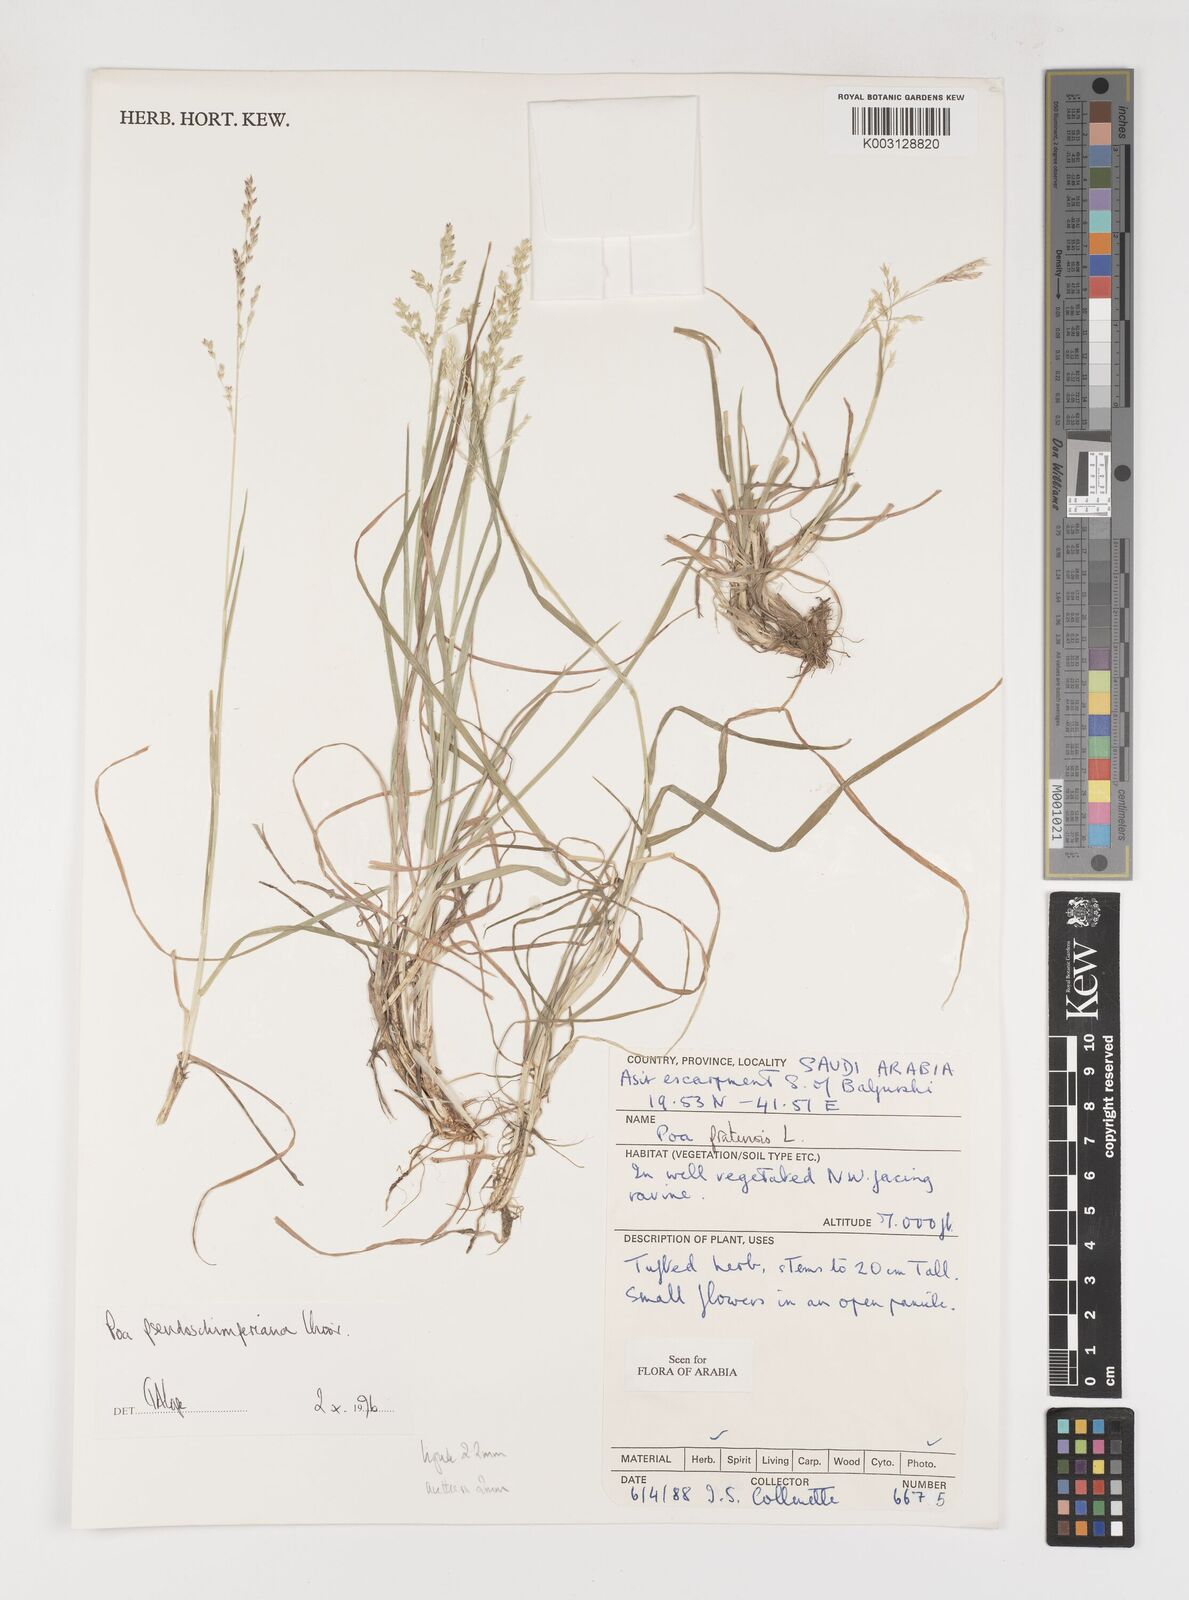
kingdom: Plantae
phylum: Tracheophyta
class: Liliopsida
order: Poales
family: Poaceae
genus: Poa
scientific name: Poa pseudoschimperiana
